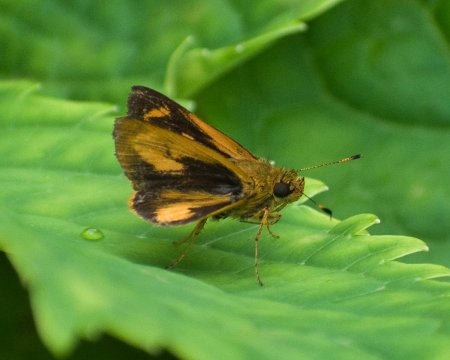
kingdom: Animalia
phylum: Arthropoda
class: Insecta
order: Lepidoptera
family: Hesperiidae
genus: Anthoptus
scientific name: Anthoptus epictetus
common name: Trailside Skipper
